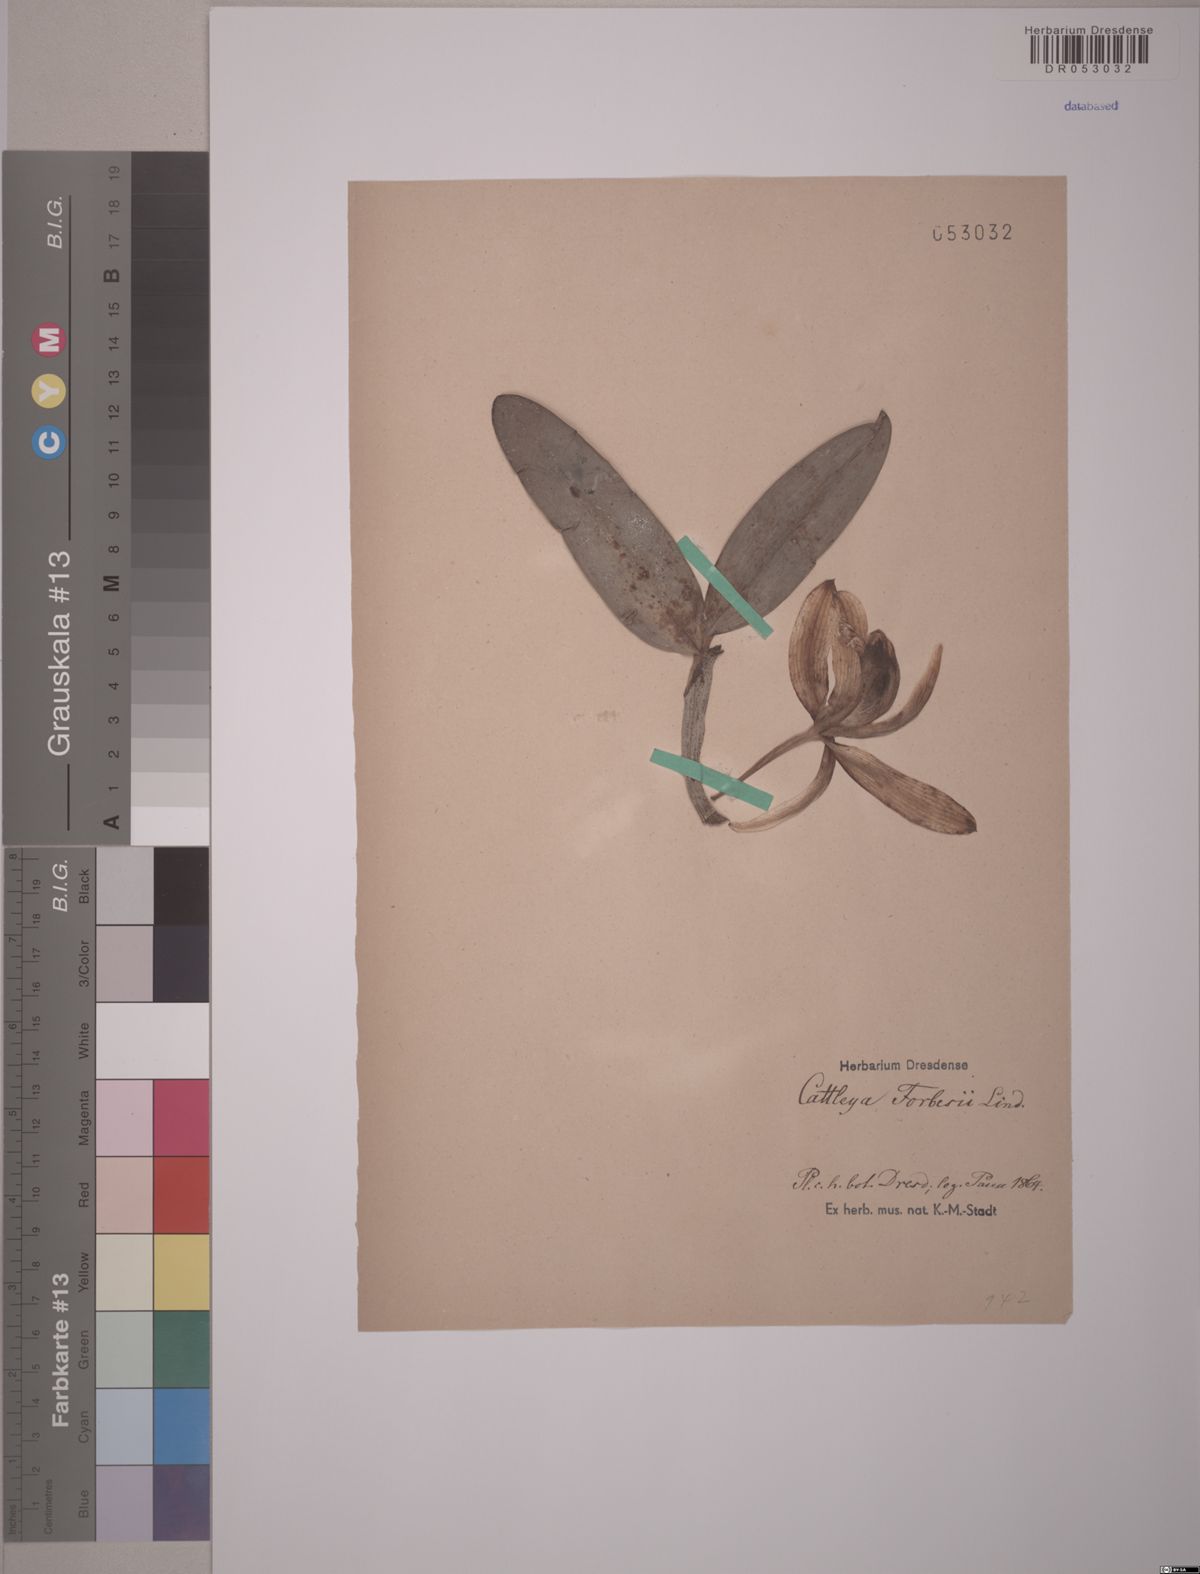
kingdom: Plantae
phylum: Tracheophyta
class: Liliopsida
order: Asparagales
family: Orchidaceae
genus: Cattleya
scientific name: Cattleya forbesii
